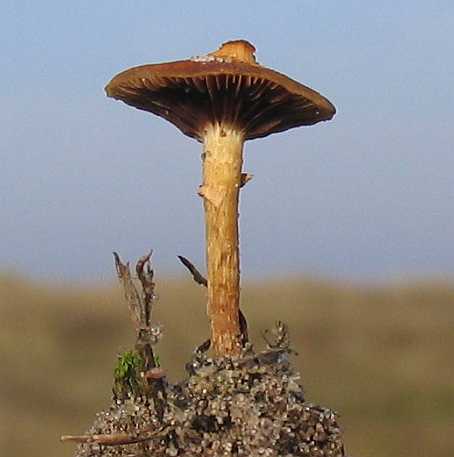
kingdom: Fungi
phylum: Basidiomycota
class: Agaricomycetes
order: Agaricales
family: Strophariaceae
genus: Leratiomyces
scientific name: Leratiomyces laetissimus
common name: mark-bredblad
